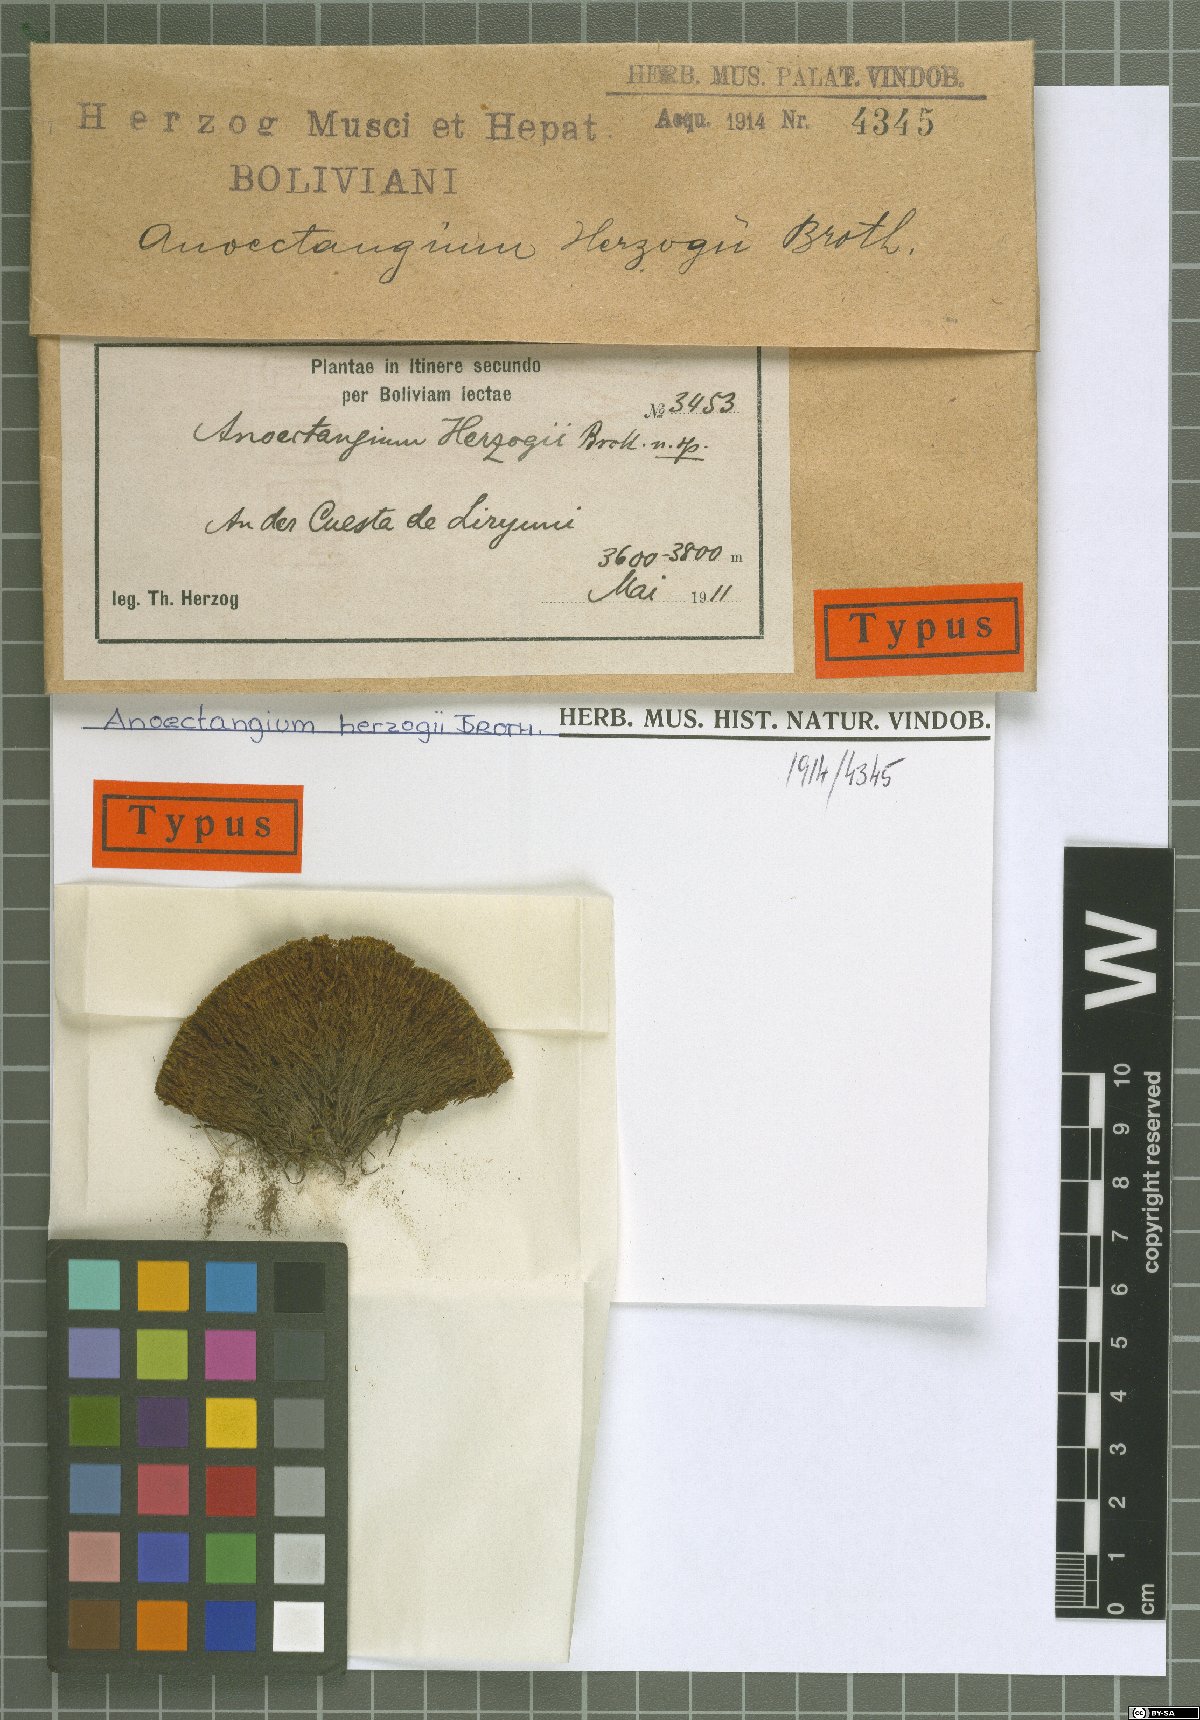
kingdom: Plantae
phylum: Bryophyta
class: Bryopsida
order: Pottiales
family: Pottiaceae
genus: Molendoa
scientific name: Molendoa peruviana
